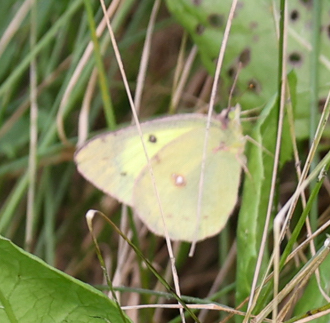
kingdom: Animalia
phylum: Arthropoda
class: Insecta
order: Lepidoptera
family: Pieridae
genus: Colias
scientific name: Colias philodice
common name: Clouded Sulphur
